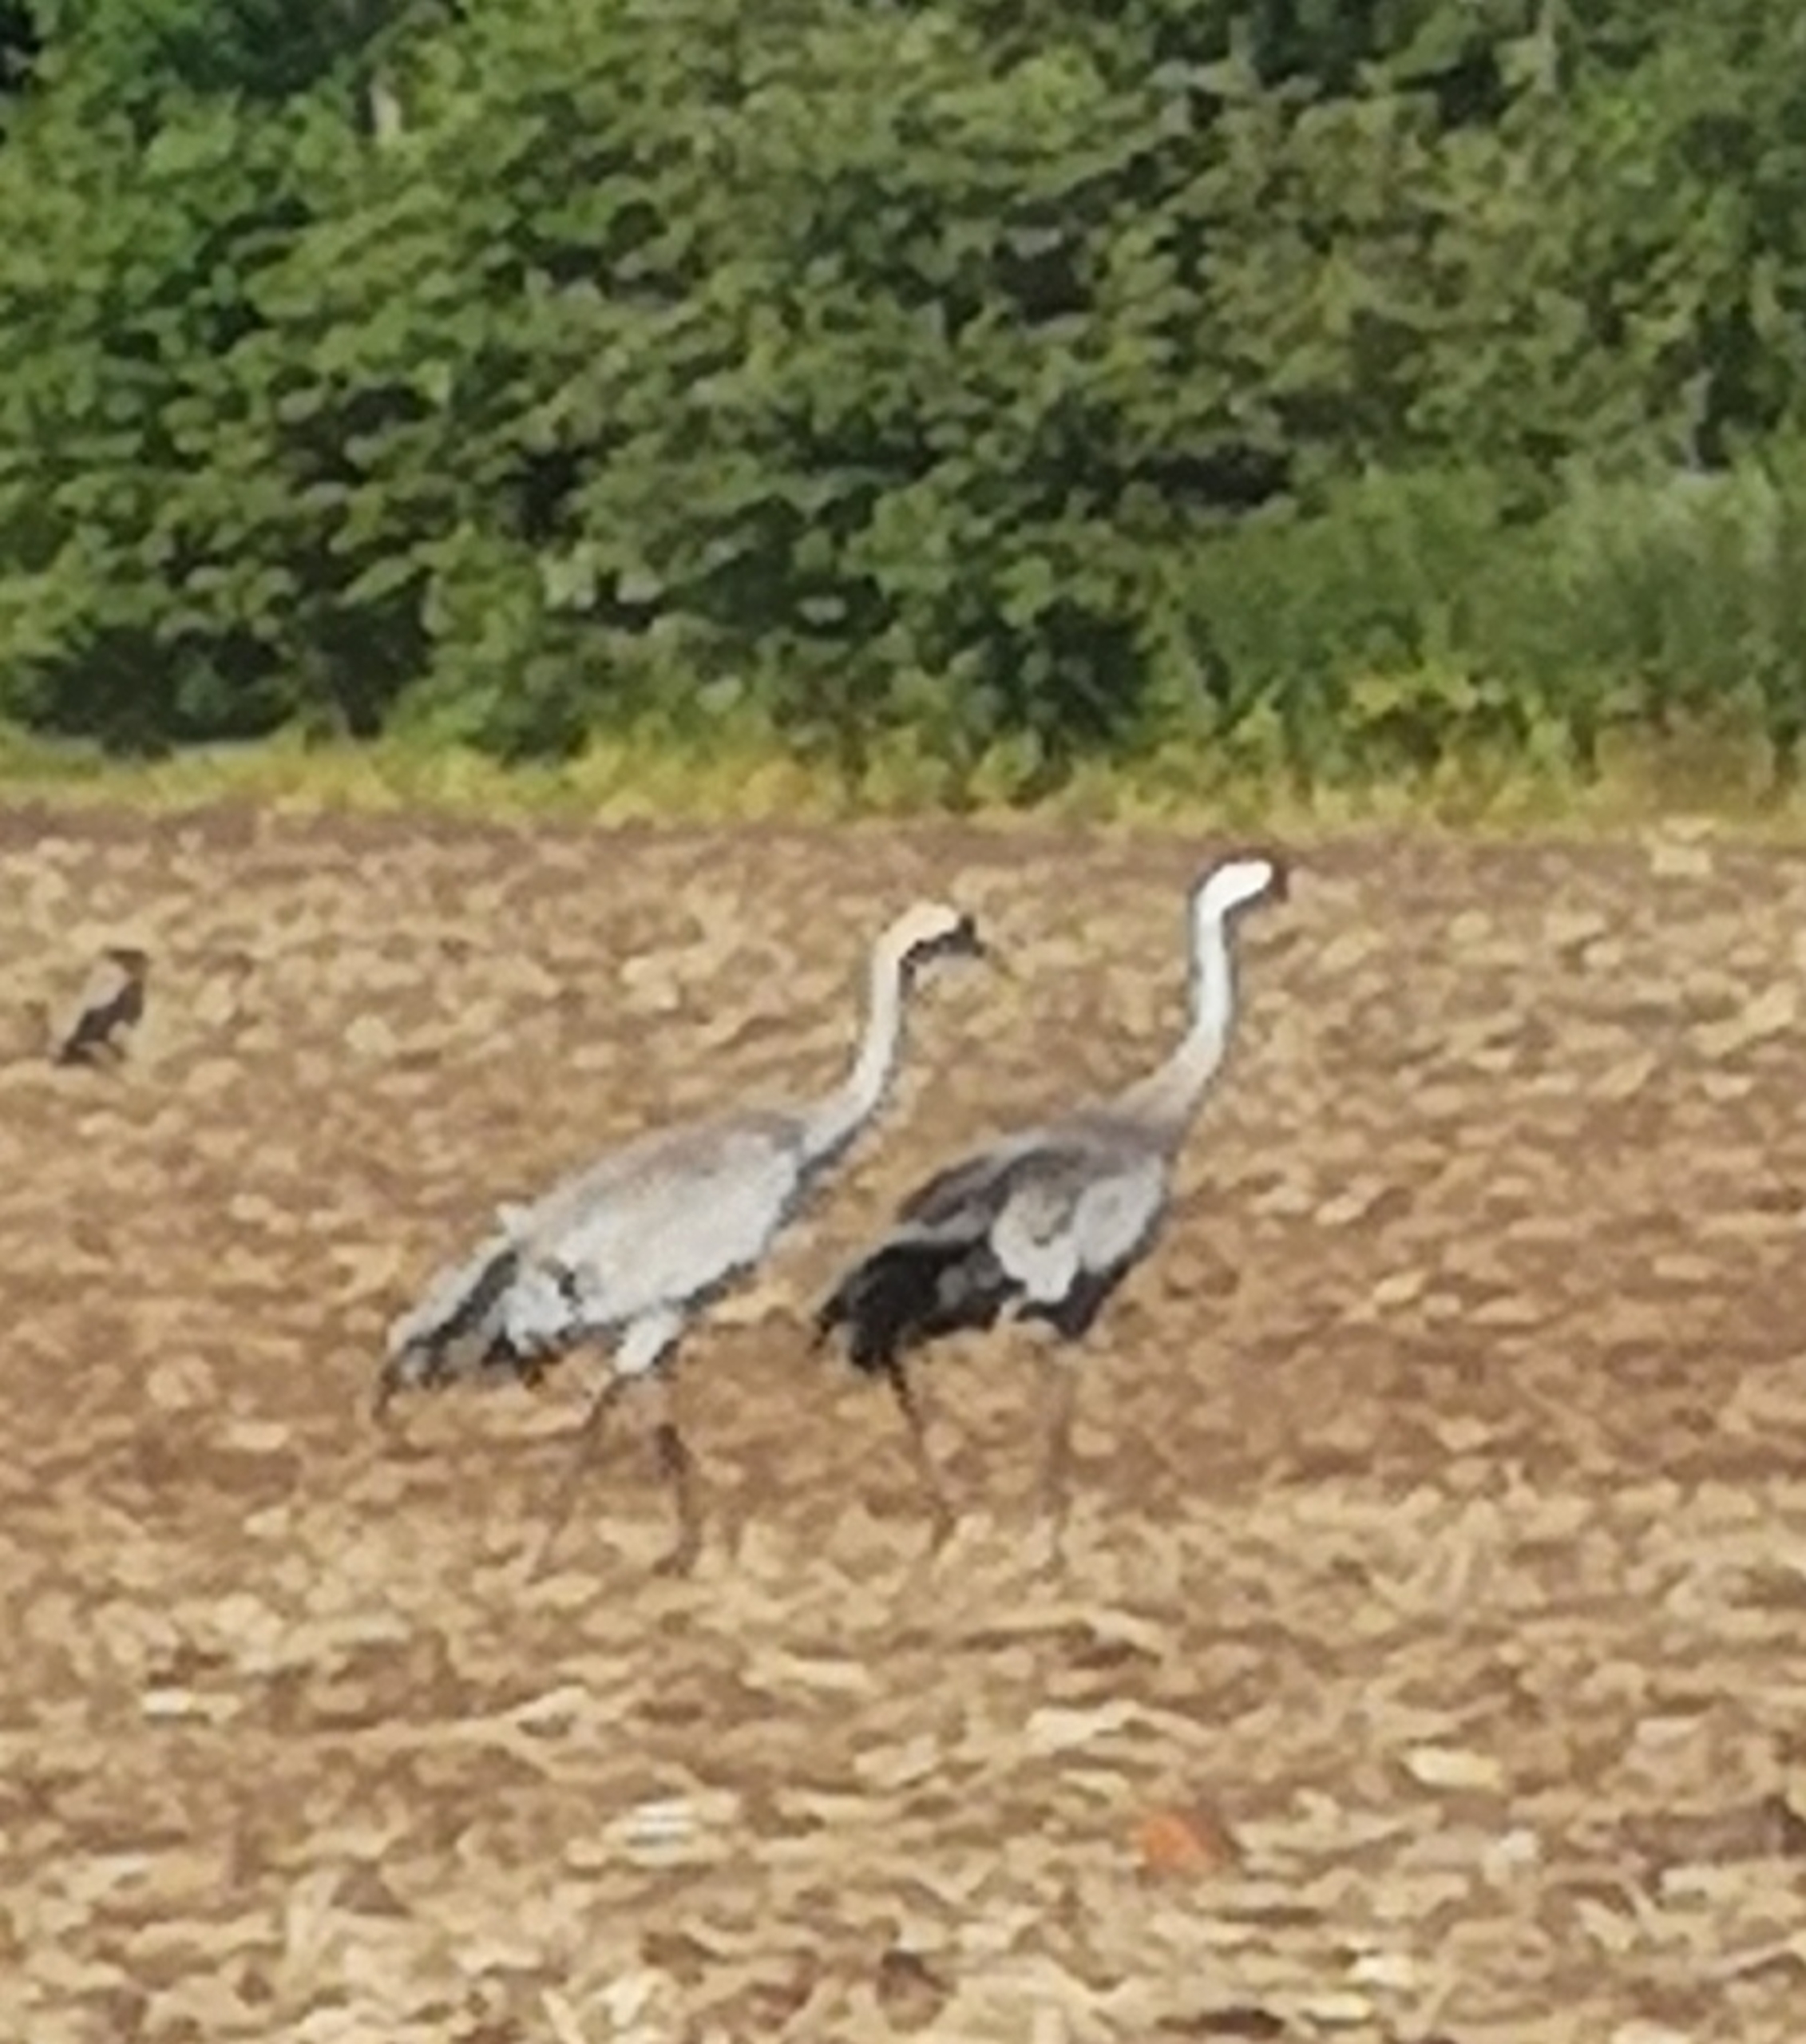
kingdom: Animalia
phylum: Chordata
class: Aves
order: Gruiformes
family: Gruidae
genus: Grus
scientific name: Grus grus
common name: Trane
